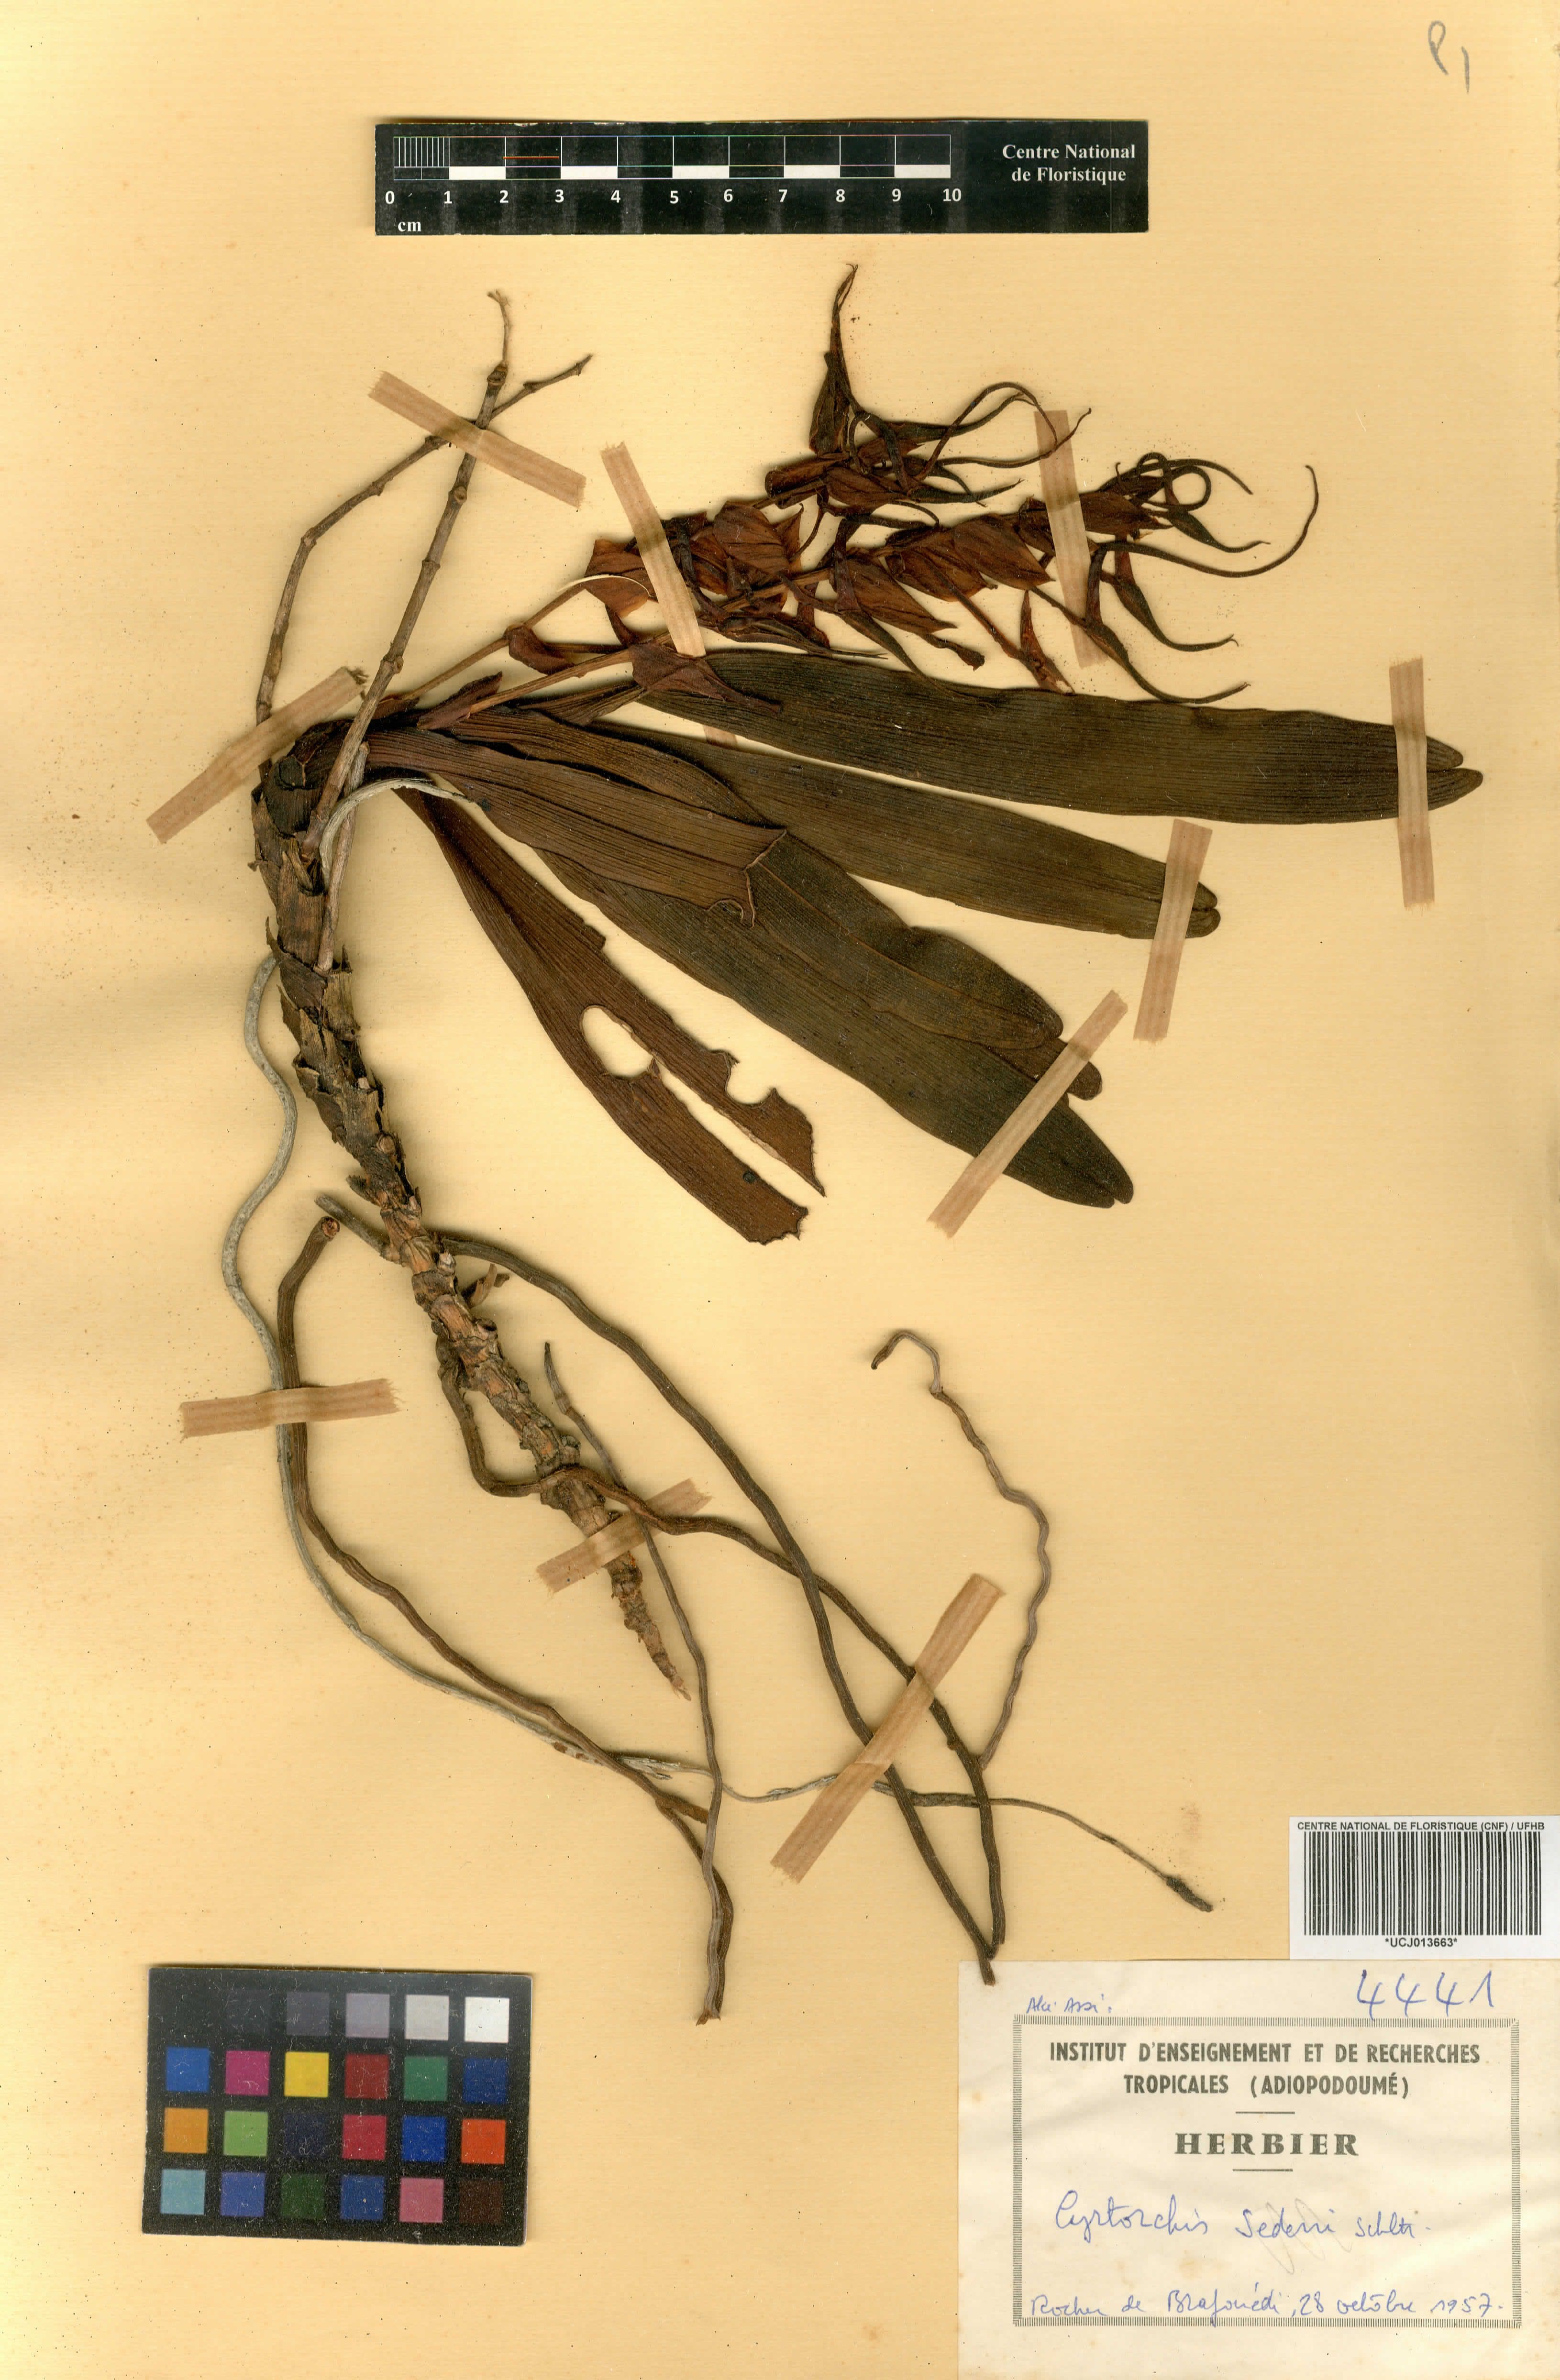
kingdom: Plantae
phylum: Tracheophyta
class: Liliopsida
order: Asparagales
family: Orchidaceae
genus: Cyrtorchis
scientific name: Cyrtorchis arcuata
